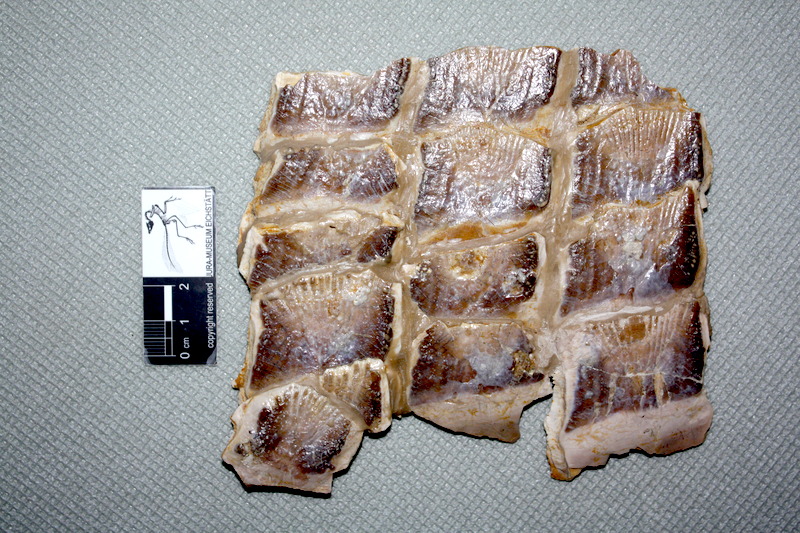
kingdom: Animalia
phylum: Chordata
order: Lepisosteiformes
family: Lepidotidae
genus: Scheenstia
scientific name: Scheenstia maximus
